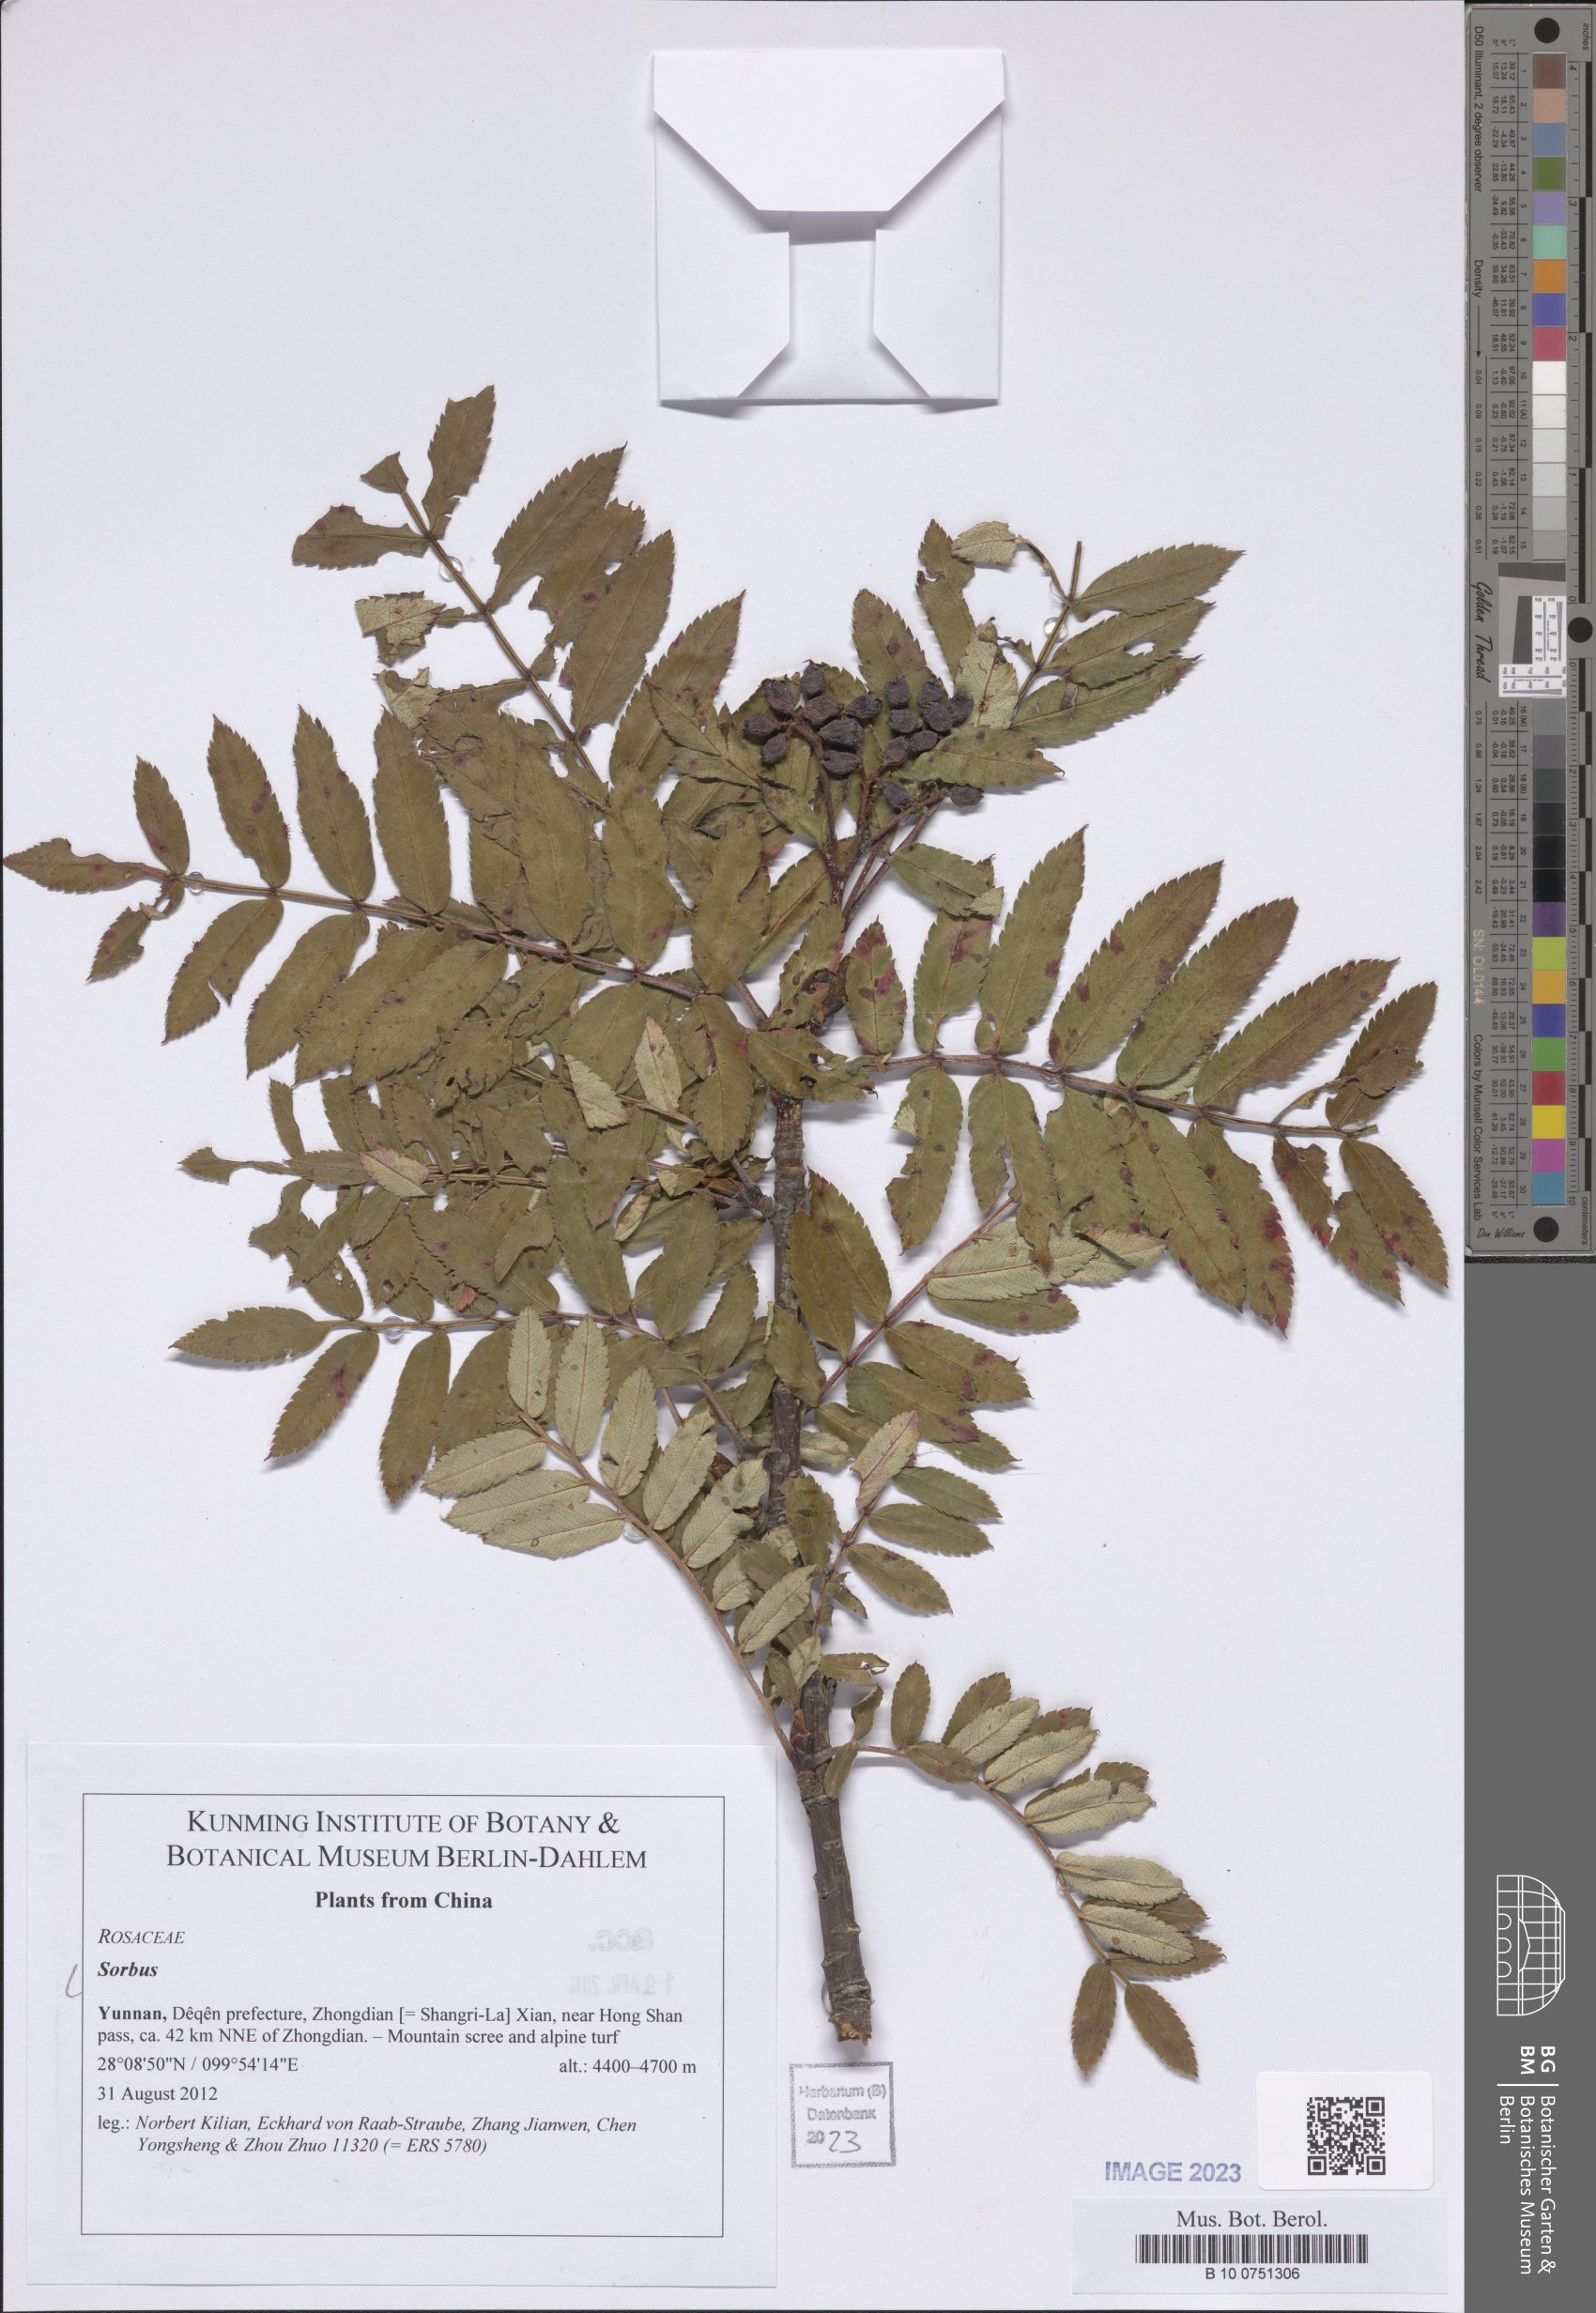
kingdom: Plantae
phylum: Tracheophyta
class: Magnoliopsida
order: Rosales
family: Rosaceae
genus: Sorbus
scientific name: Sorbus
